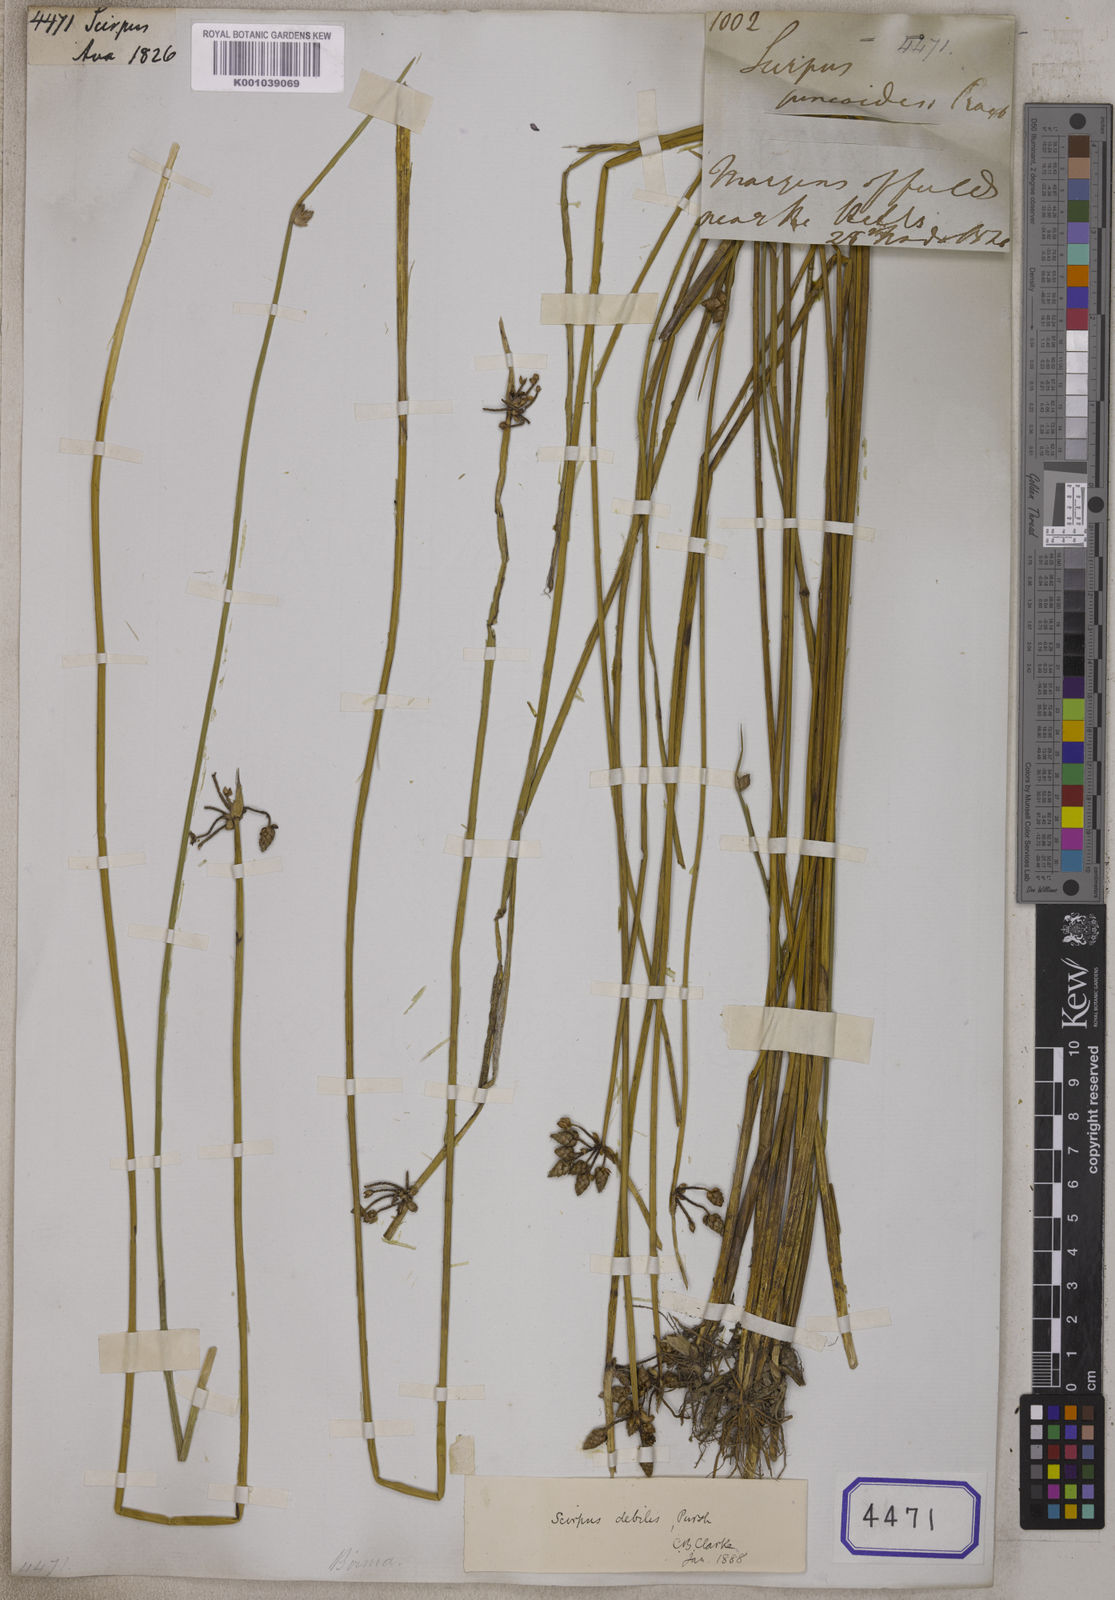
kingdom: Plantae
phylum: Tracheophyta
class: Liliopsida
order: Poales
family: Cyperaceae
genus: Scirpus
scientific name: Scirpus
